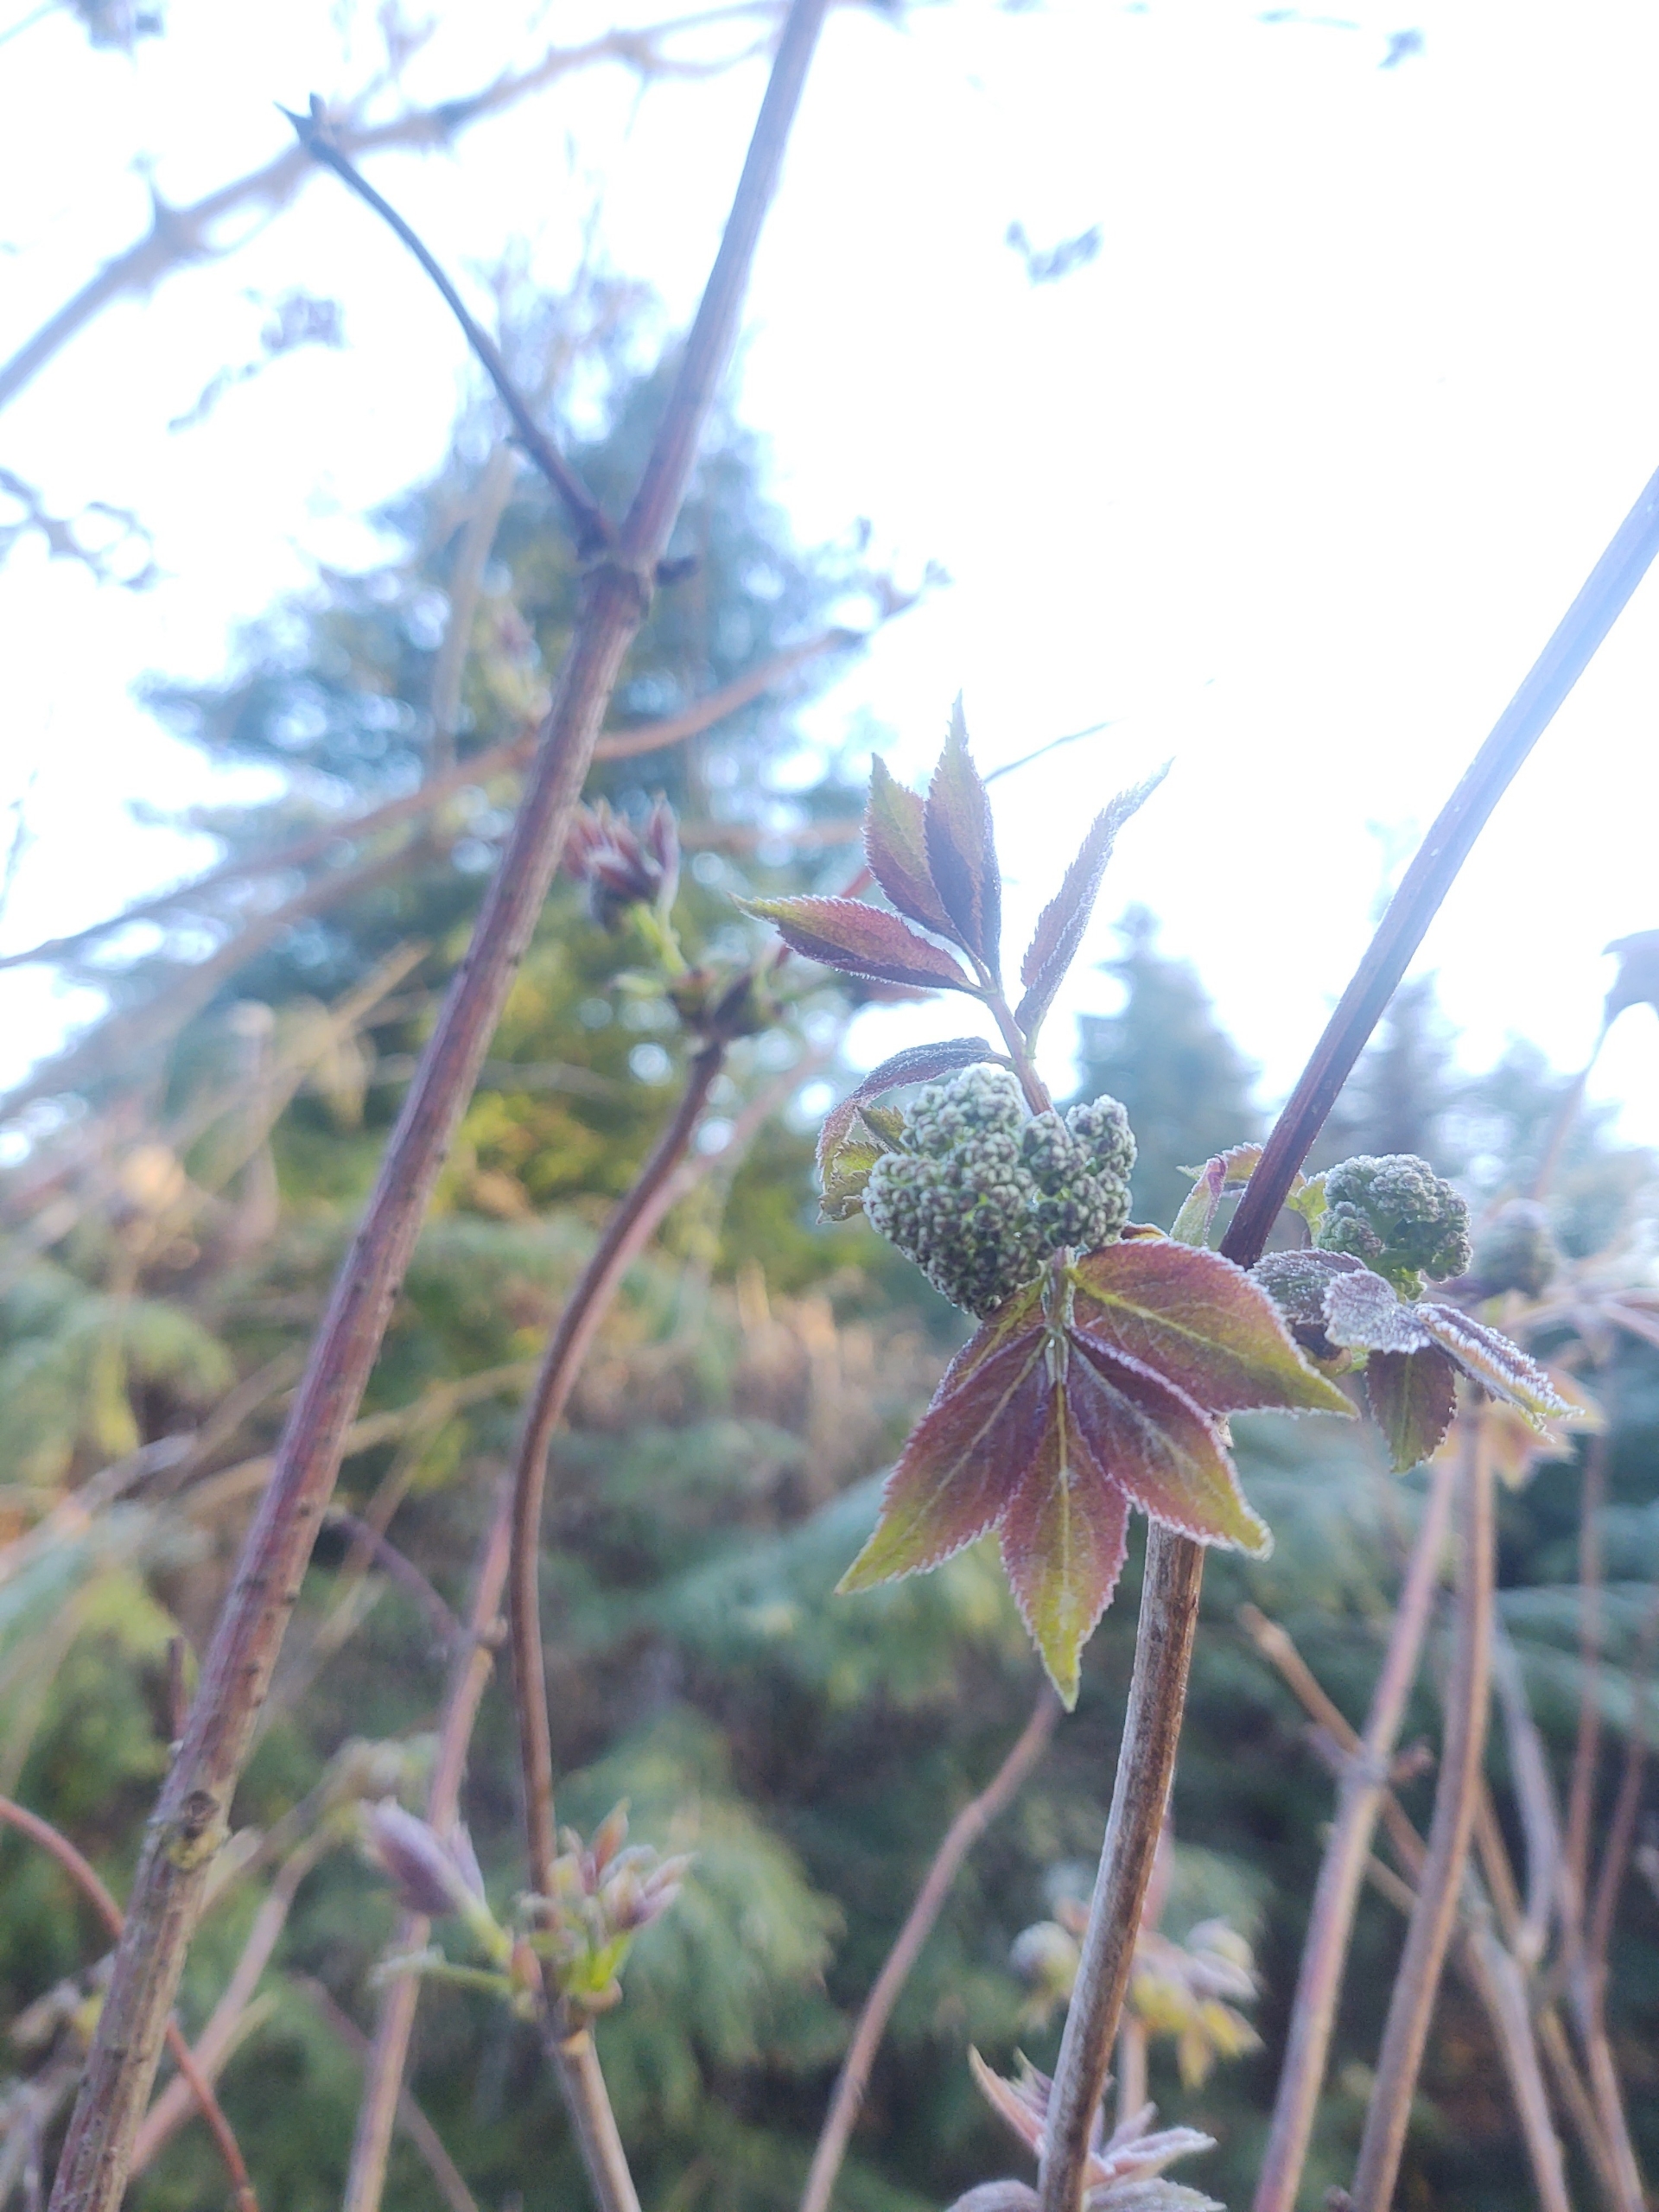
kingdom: Plantae
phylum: Tracheophyta
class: Magnoliopsida
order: Dipsacales
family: Viburnaceae
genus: Sambucus
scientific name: Sambucus racemosa
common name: Drue-hyld
